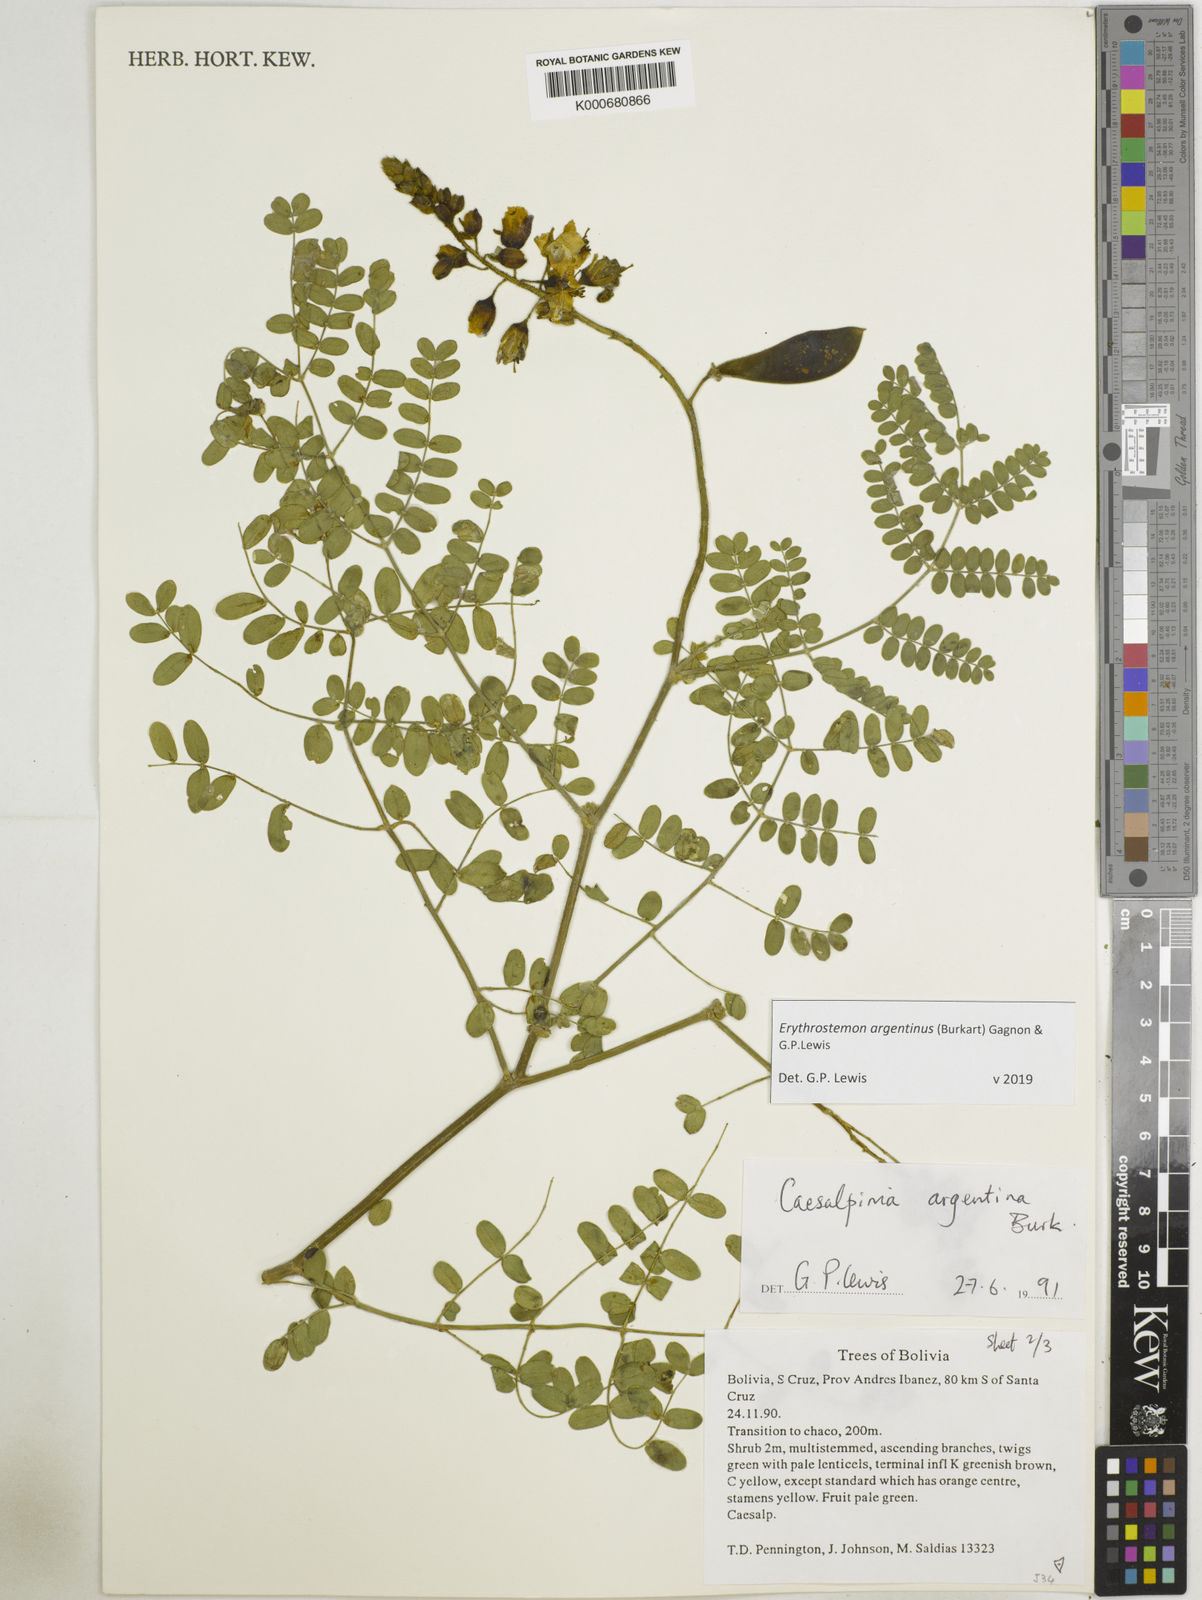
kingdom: Plantae
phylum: Tracheophyta
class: Magnoliopsida
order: Fabales
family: Fabaceae
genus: Erythrostemon
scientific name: Erythrostemon argentinus
